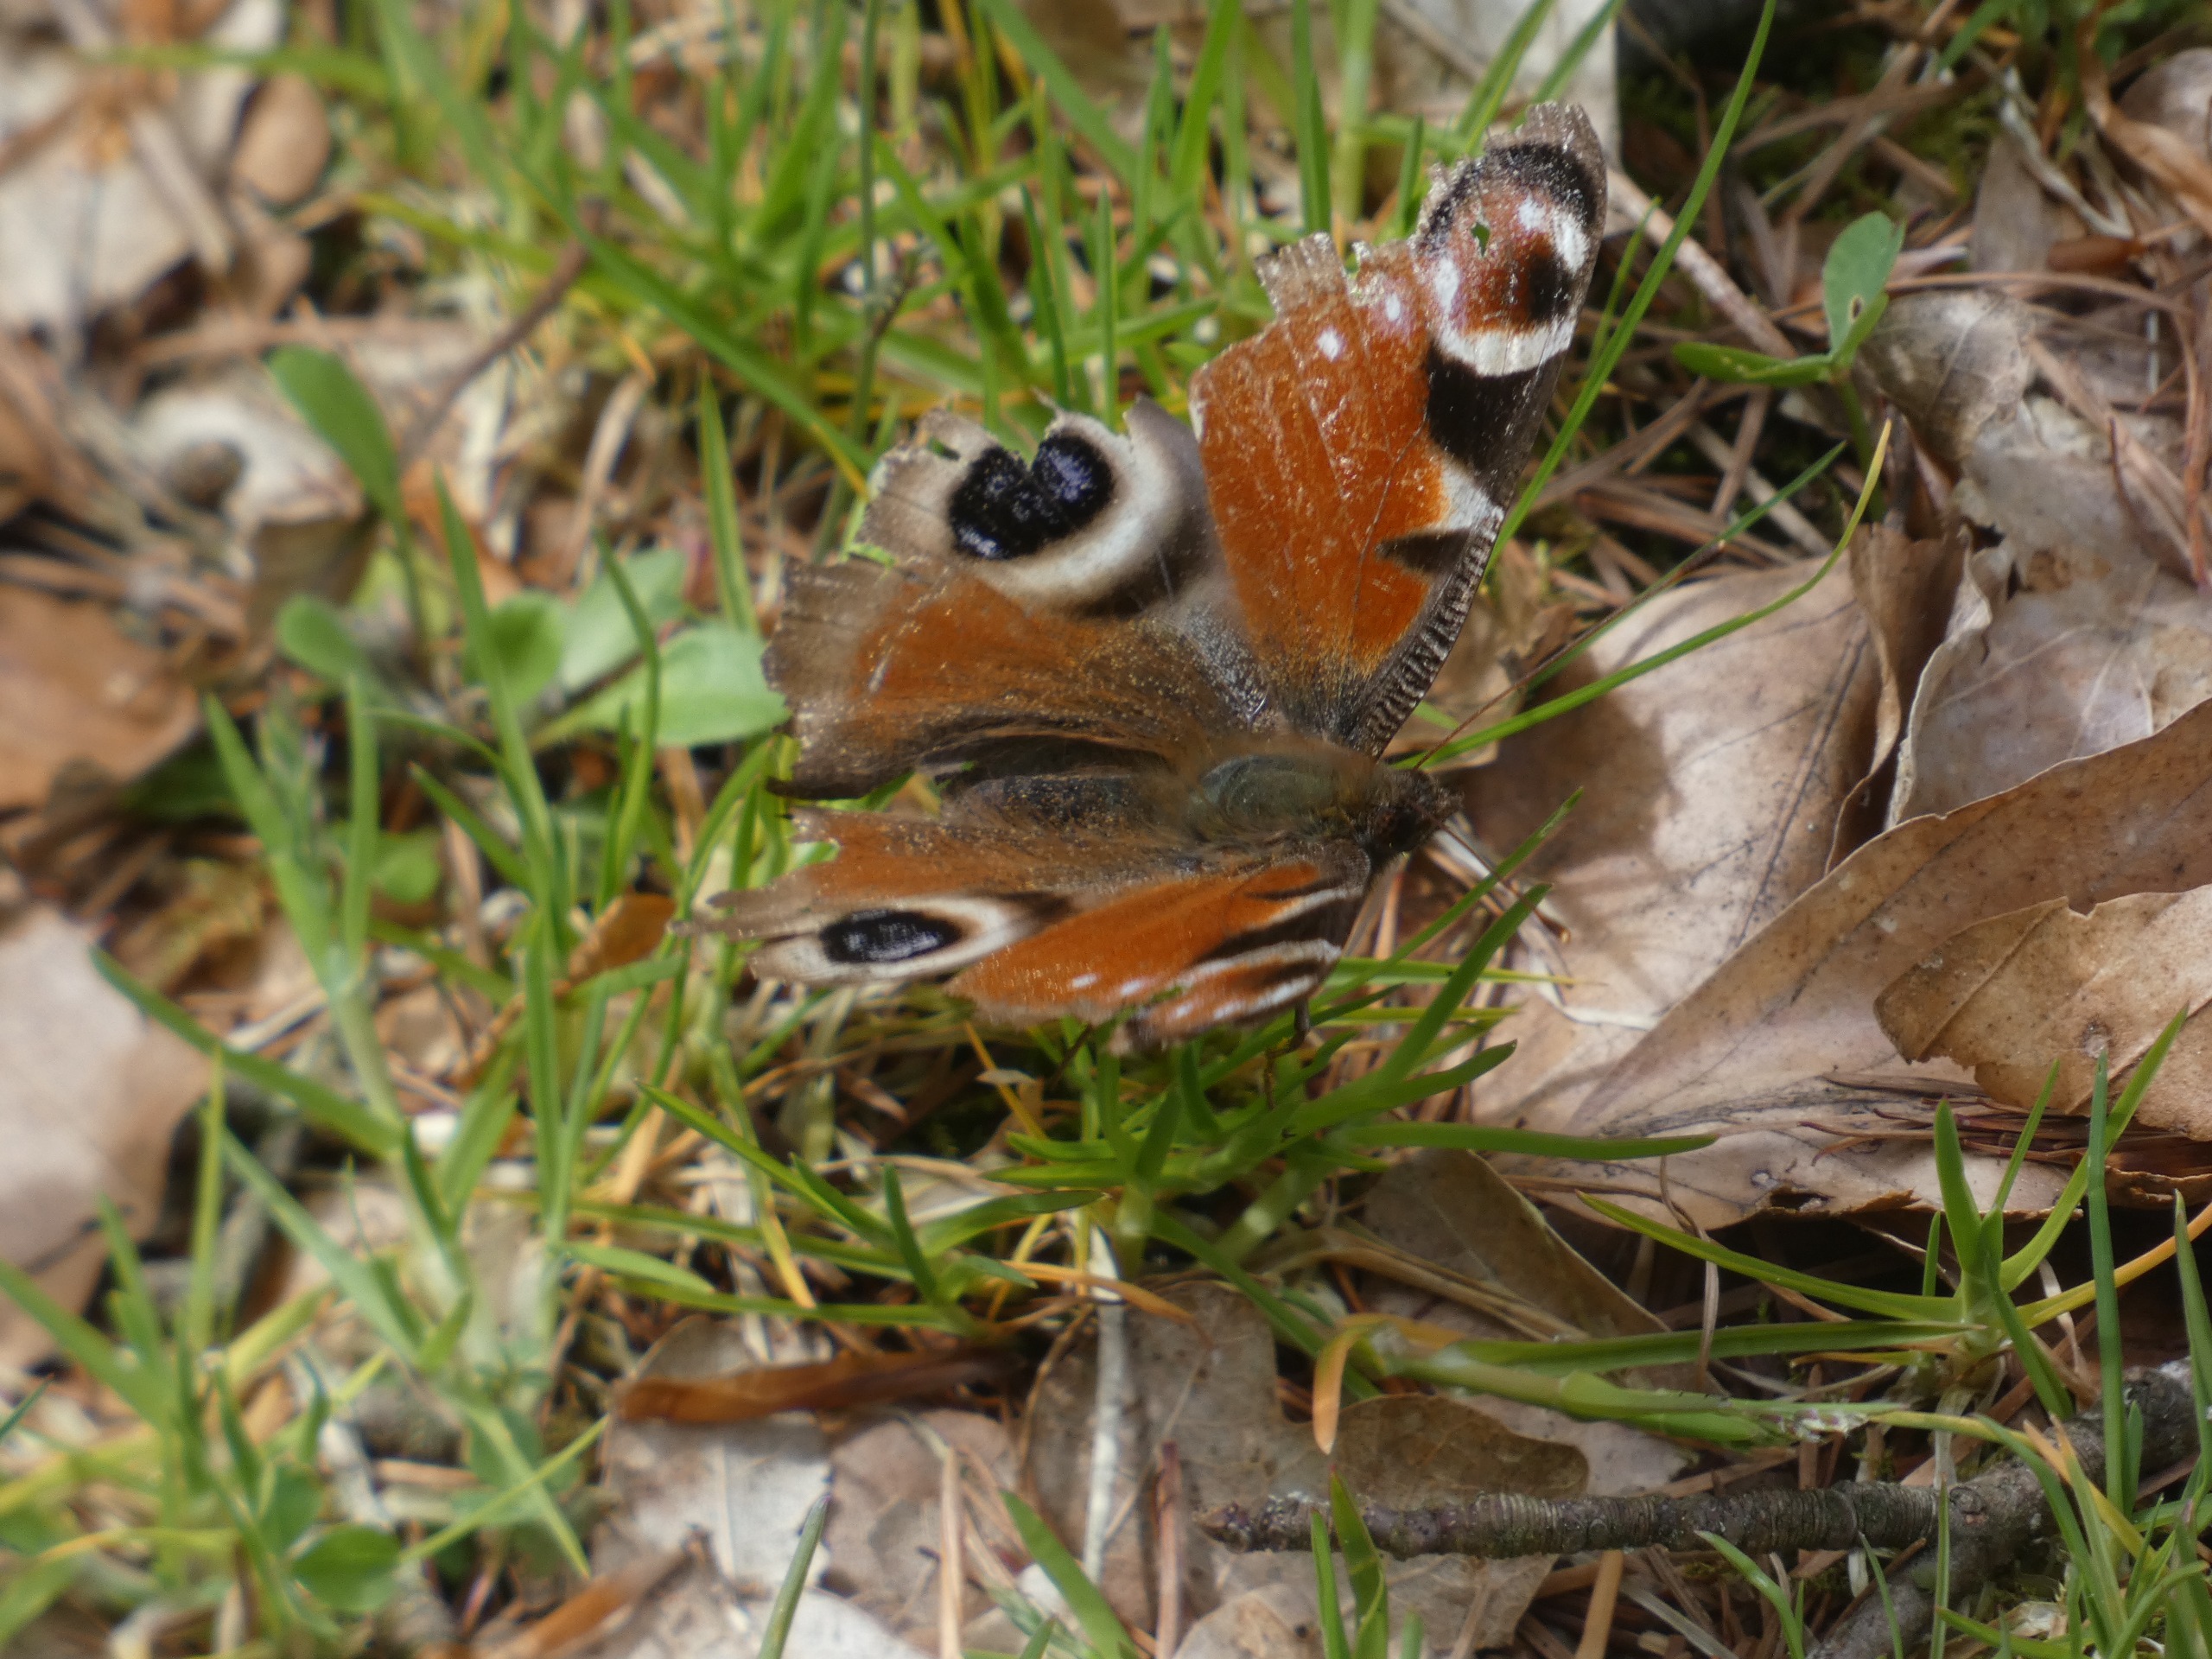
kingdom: Animalia
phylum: Arthropoda
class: Insecta
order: Lepidoptera
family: Nymphalidae
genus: Aglais
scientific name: Aglais io
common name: Dagpåfugleøje
